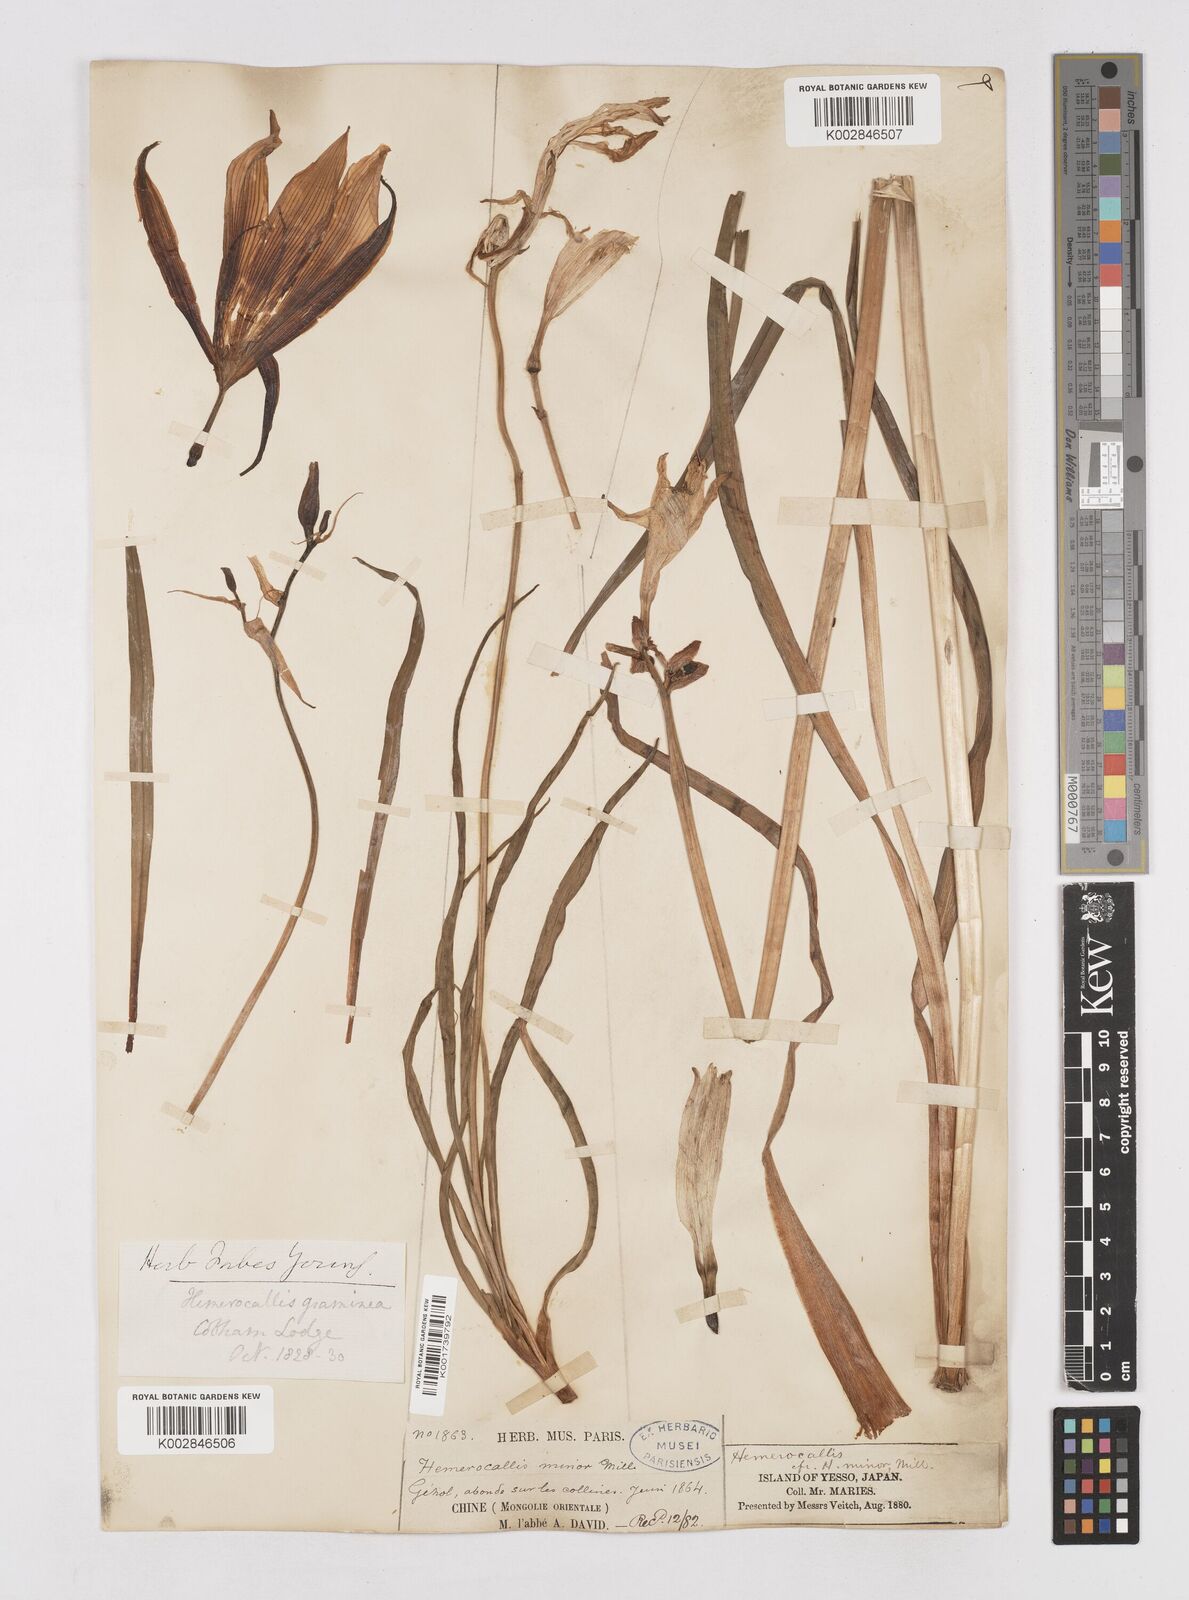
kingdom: Plantae
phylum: Tracheophyta
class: Liliopsida
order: Asparagales
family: Asphodelaceae
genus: Hemerocallis
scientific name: Hemerocallis minor
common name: Small daylily
